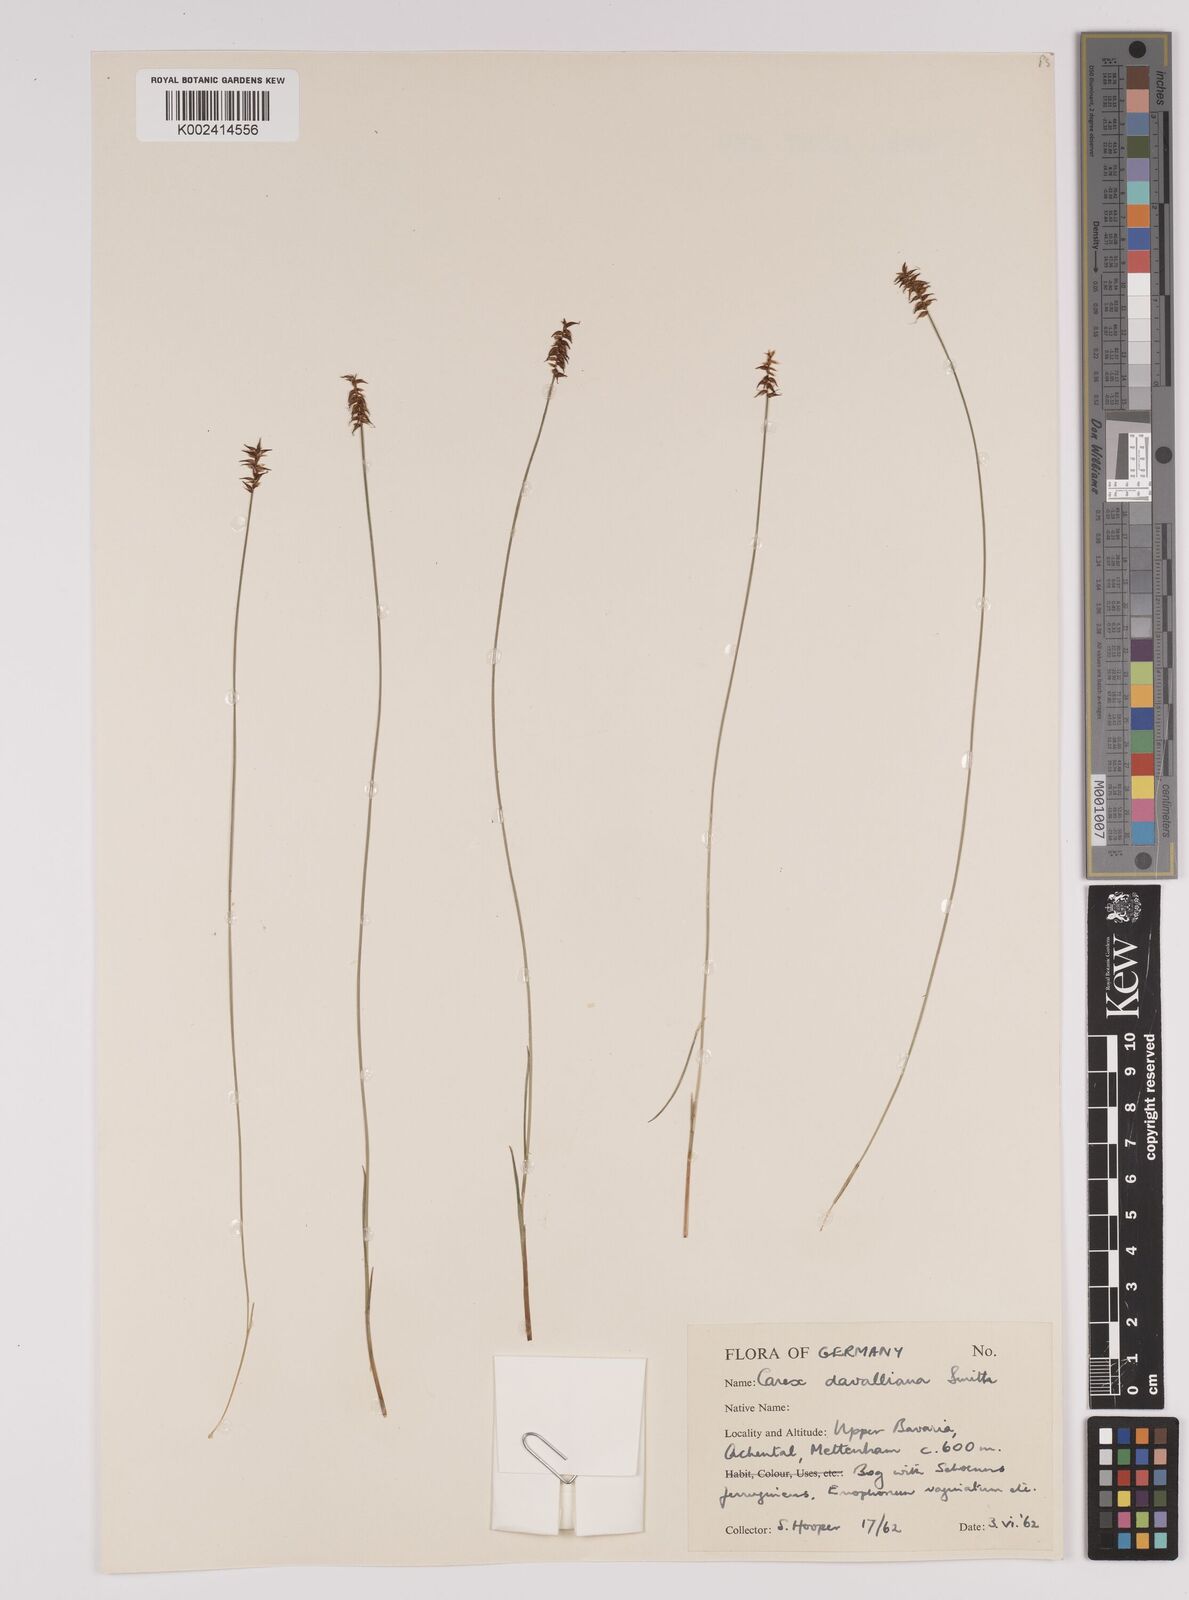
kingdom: Plantae
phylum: Tracheophyta
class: Liliopsida
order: Poales
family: Cyperaceae
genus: Carex
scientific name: Carex davalliana
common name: Davall's sedge
